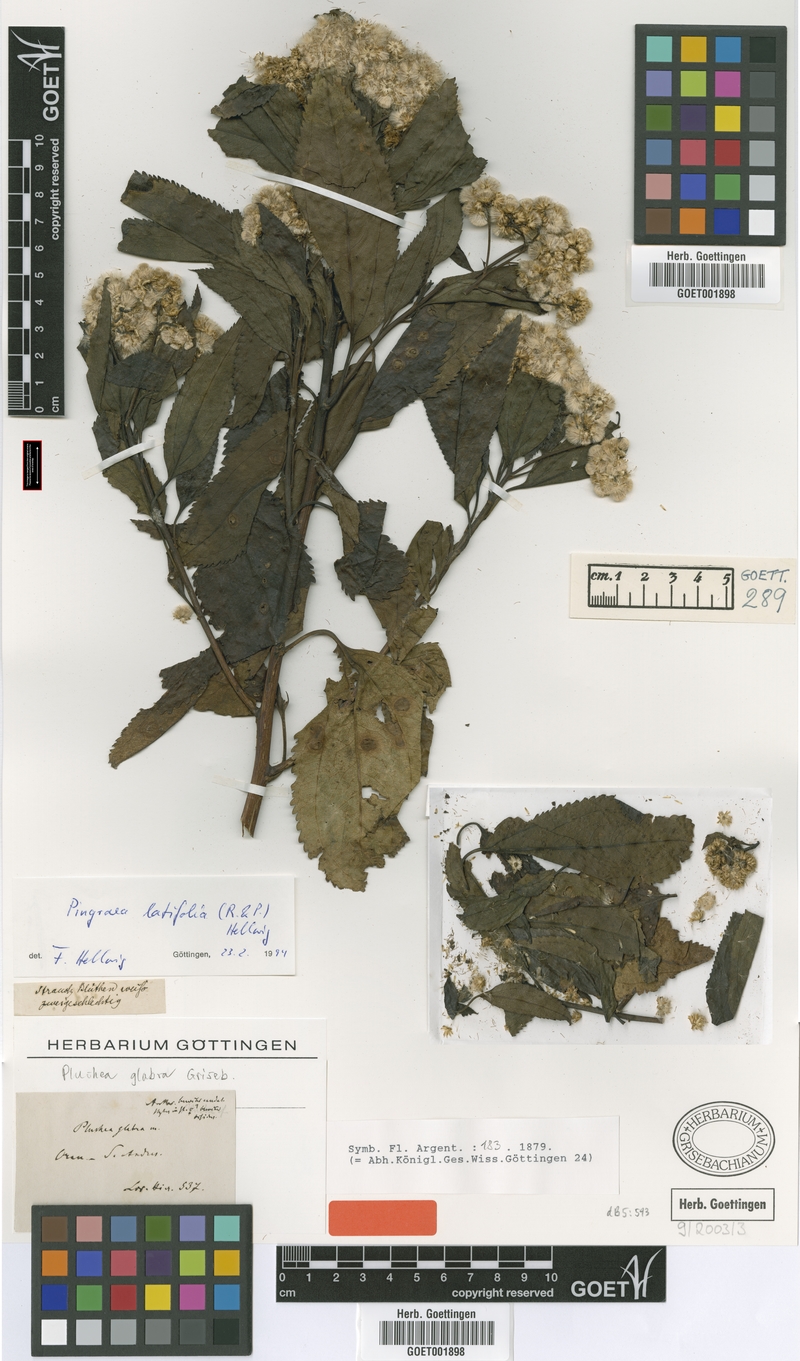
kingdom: Plantae
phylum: Tracheophyta
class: Magnoliopsida
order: Asterales
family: Asteraceae
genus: Baccharis
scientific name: Baccharis latifolia
